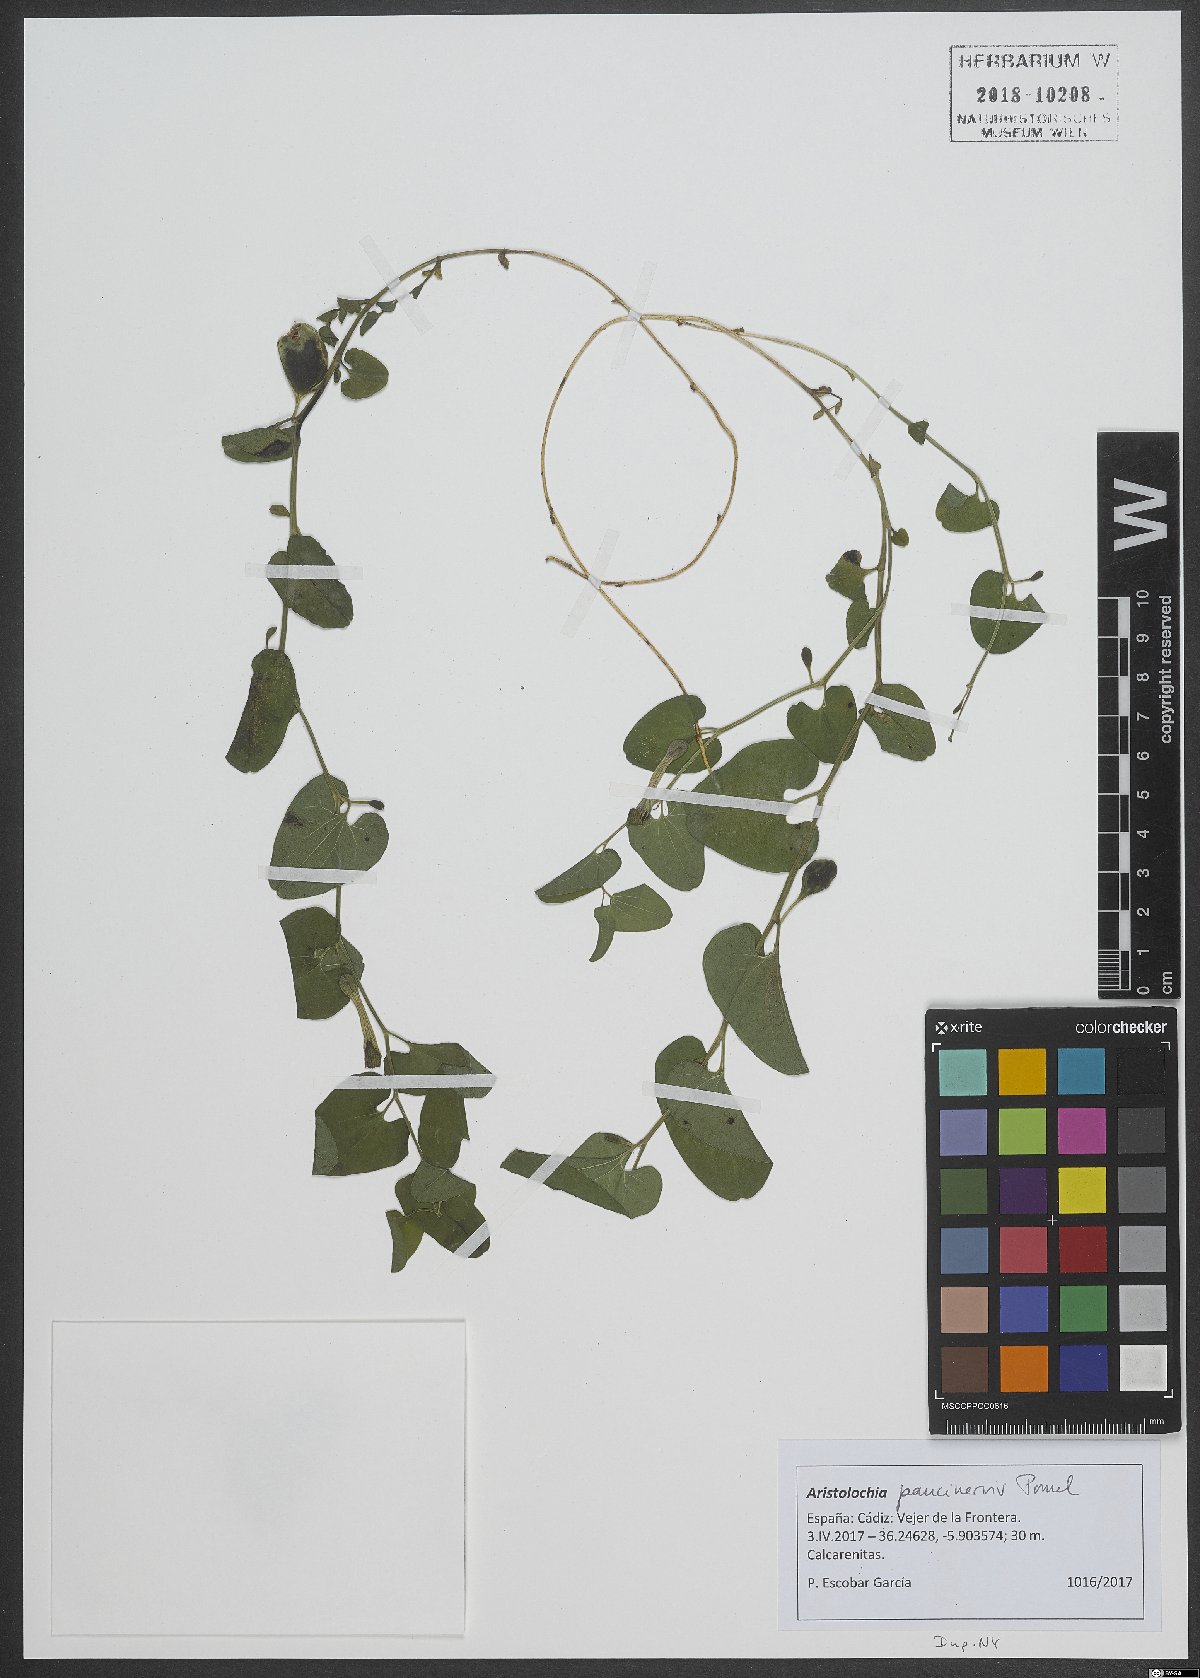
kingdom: Plantae
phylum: Tracheophyta
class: Magnoliopsida
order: Piperales
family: Aristolochiaceae
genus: Aristolochia
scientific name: Aristolochia paucinervis
